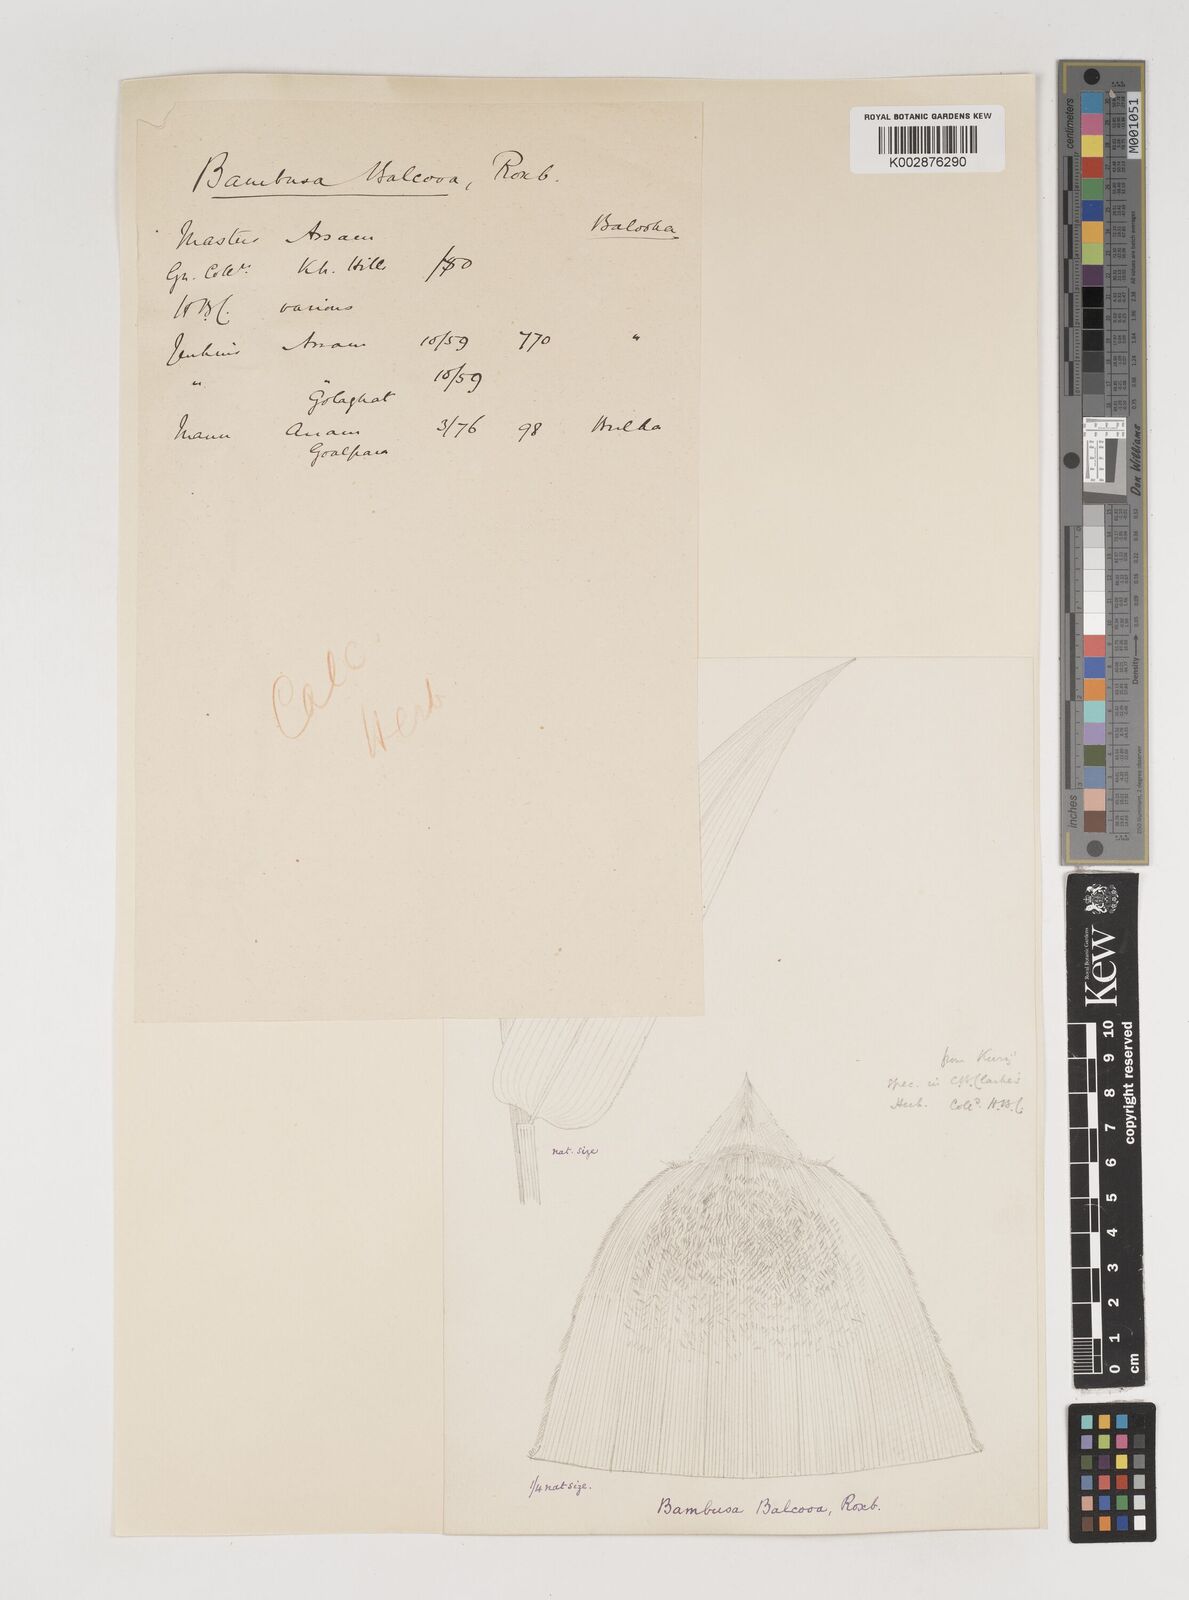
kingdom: Plantae
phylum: Tracheophyta
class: Liliopsida
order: Poales
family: Poaceae
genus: Bambusa
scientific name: Bambusa balcooa
